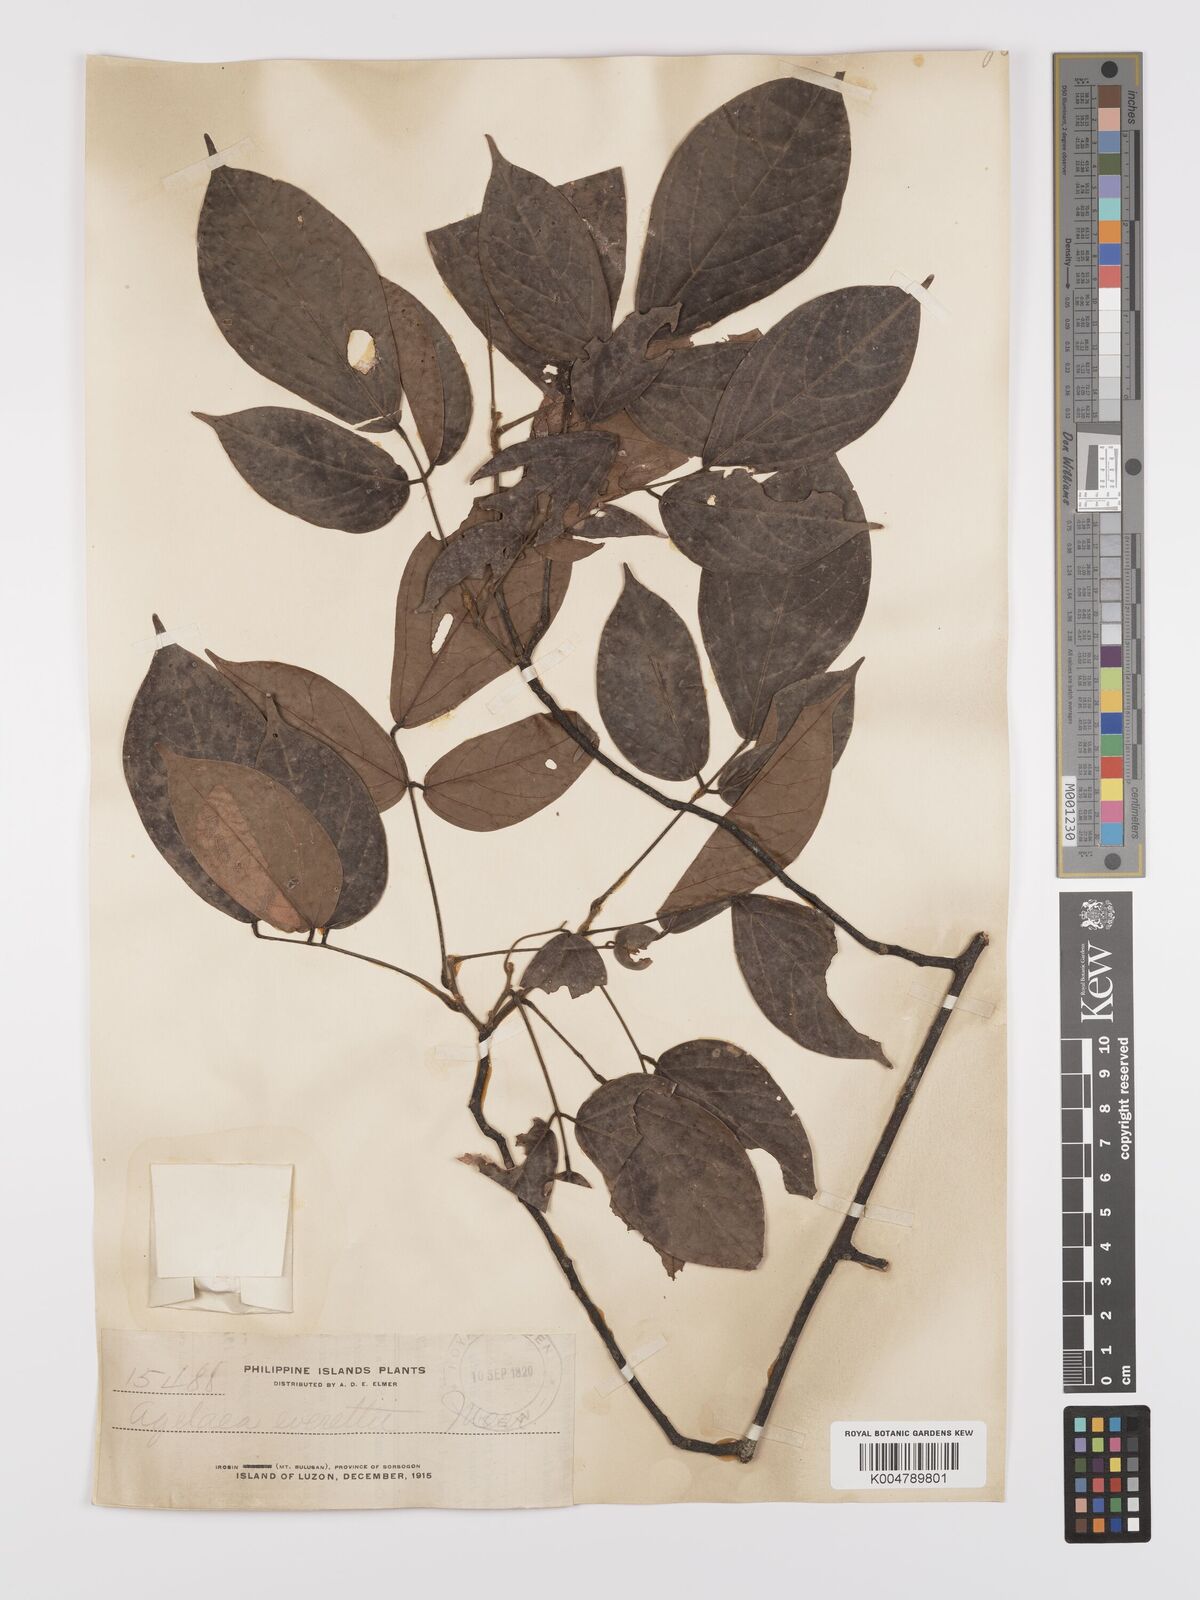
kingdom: Plantae
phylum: Tracheophyta
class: Magnoliopsida
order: Oxalidales
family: Connaraceae
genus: Agelaea
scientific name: Agelaea borneensis
